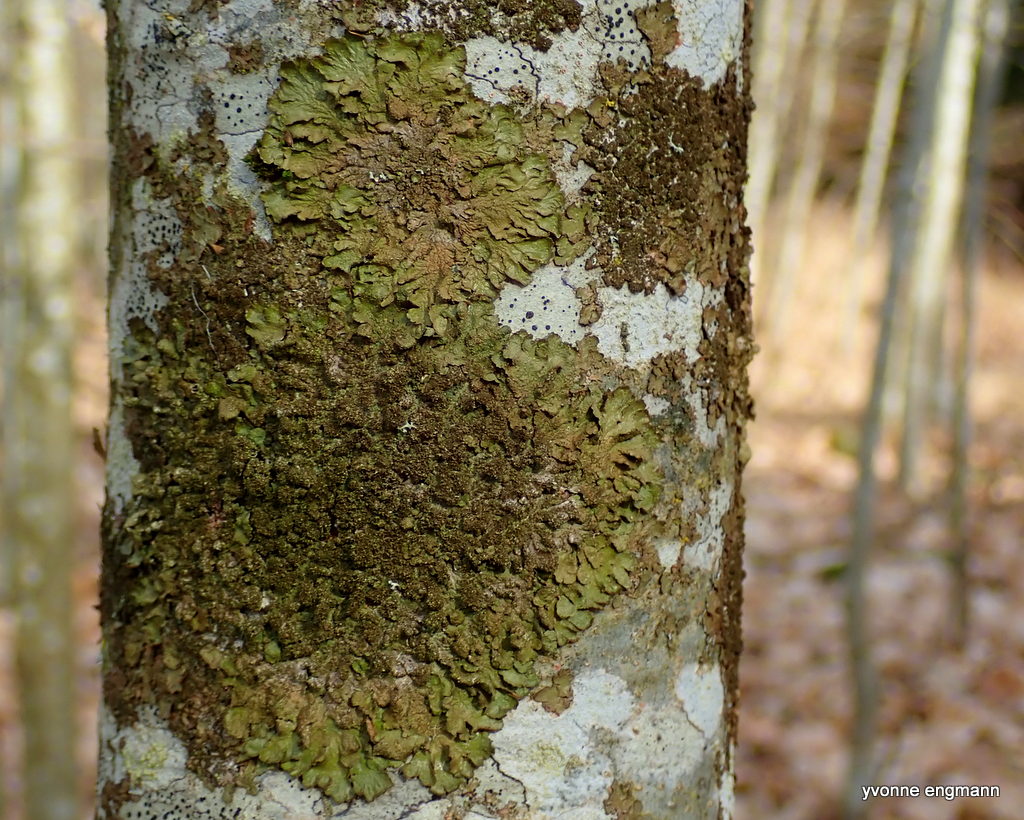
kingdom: Fungi
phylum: Ascomycota
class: Lecanoromycetes
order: Lecanorales
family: Parmeliaceae
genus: Melanelixia
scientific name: Melanelixia subaurifera
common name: guldpudret skållav
